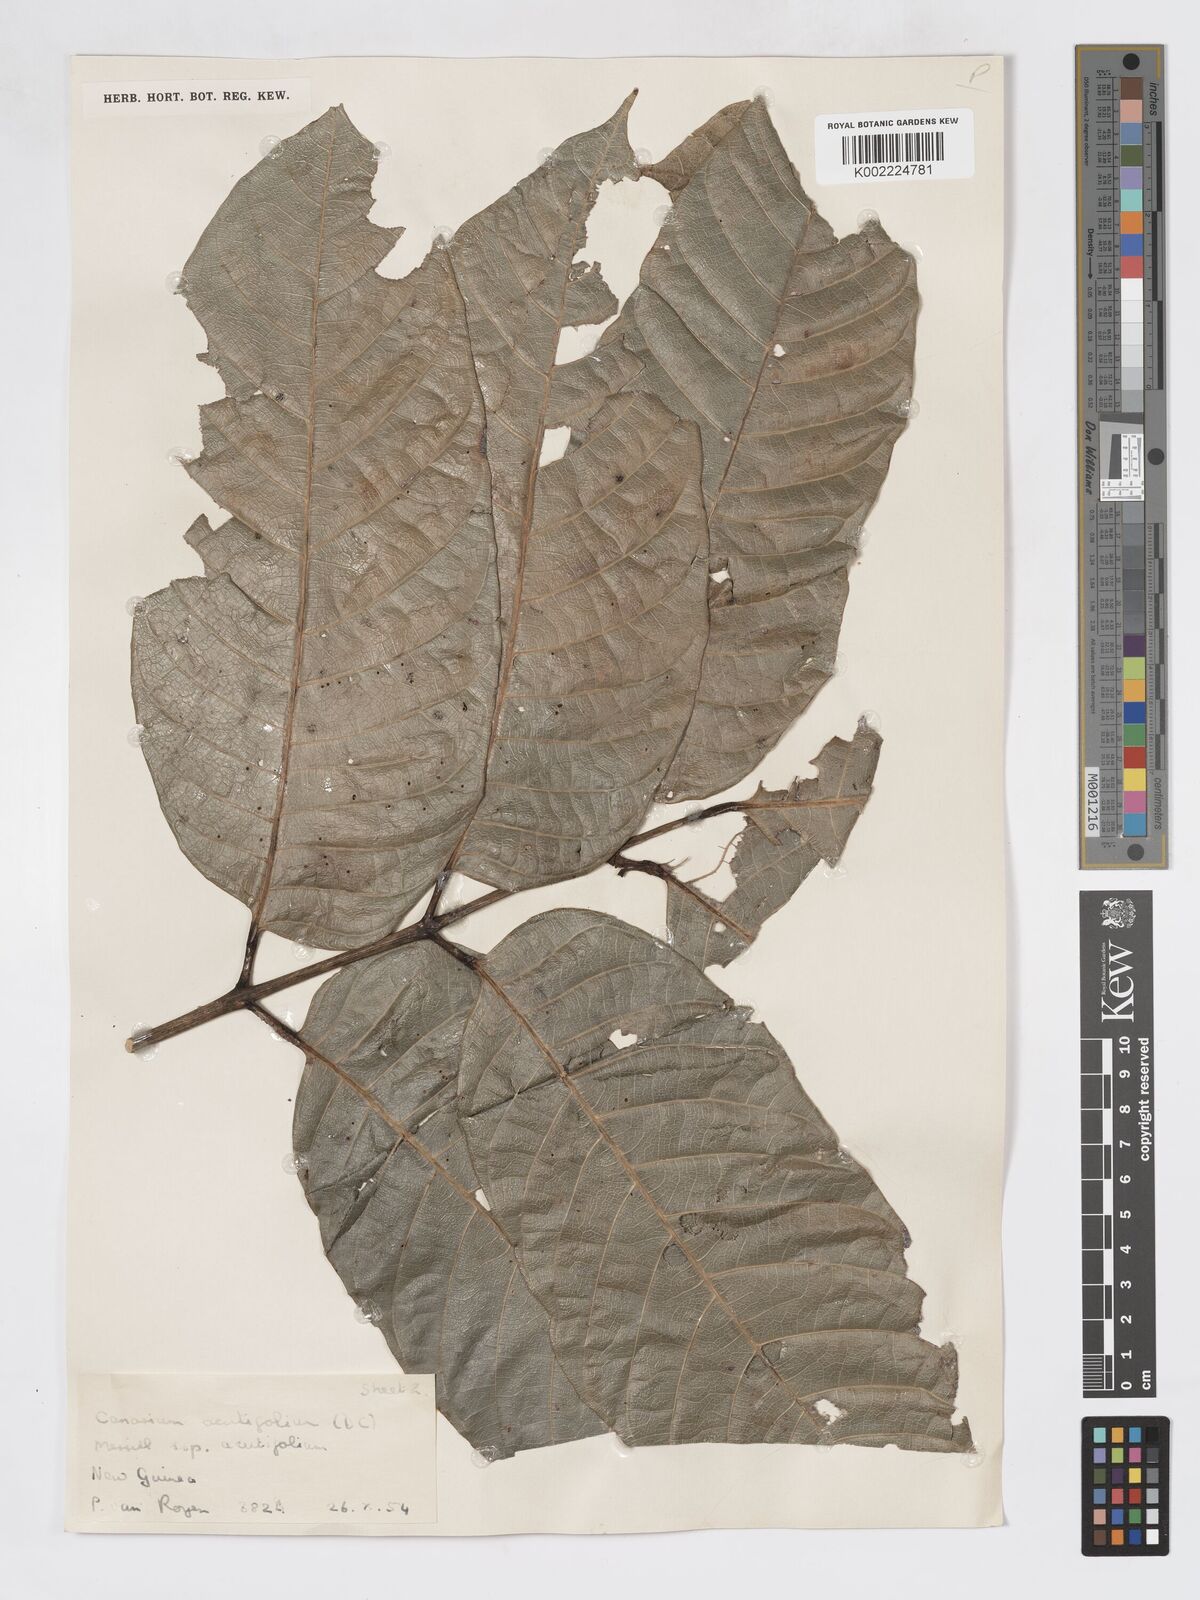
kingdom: Plantae
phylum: Tracheophyta
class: Magnoliopsida
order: Sapindales
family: Burseraceae
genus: Canarium
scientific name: Canarium acutifolium
